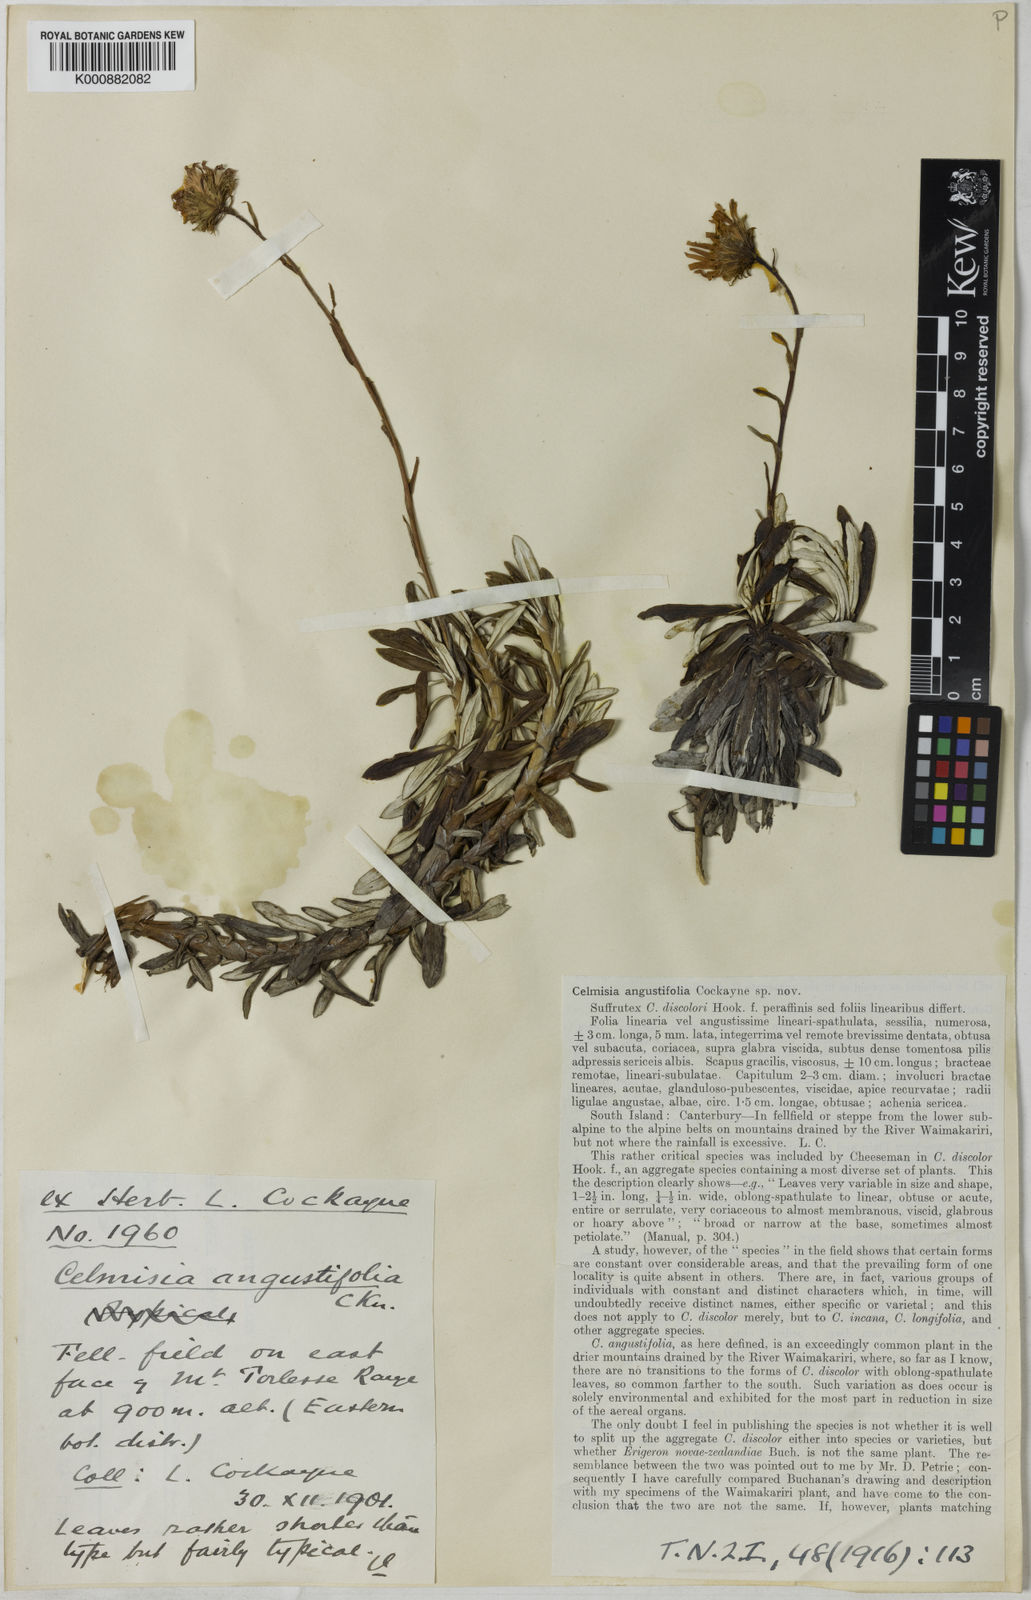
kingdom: Plantae
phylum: Tracheophyta
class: Magnoliopsida
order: Asterales
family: Asteraceae
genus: Celmisia
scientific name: Celmisia angustifolia
